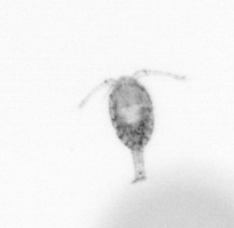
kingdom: Animalia
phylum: Arthropoda
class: Copepoda
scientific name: Copepoda
